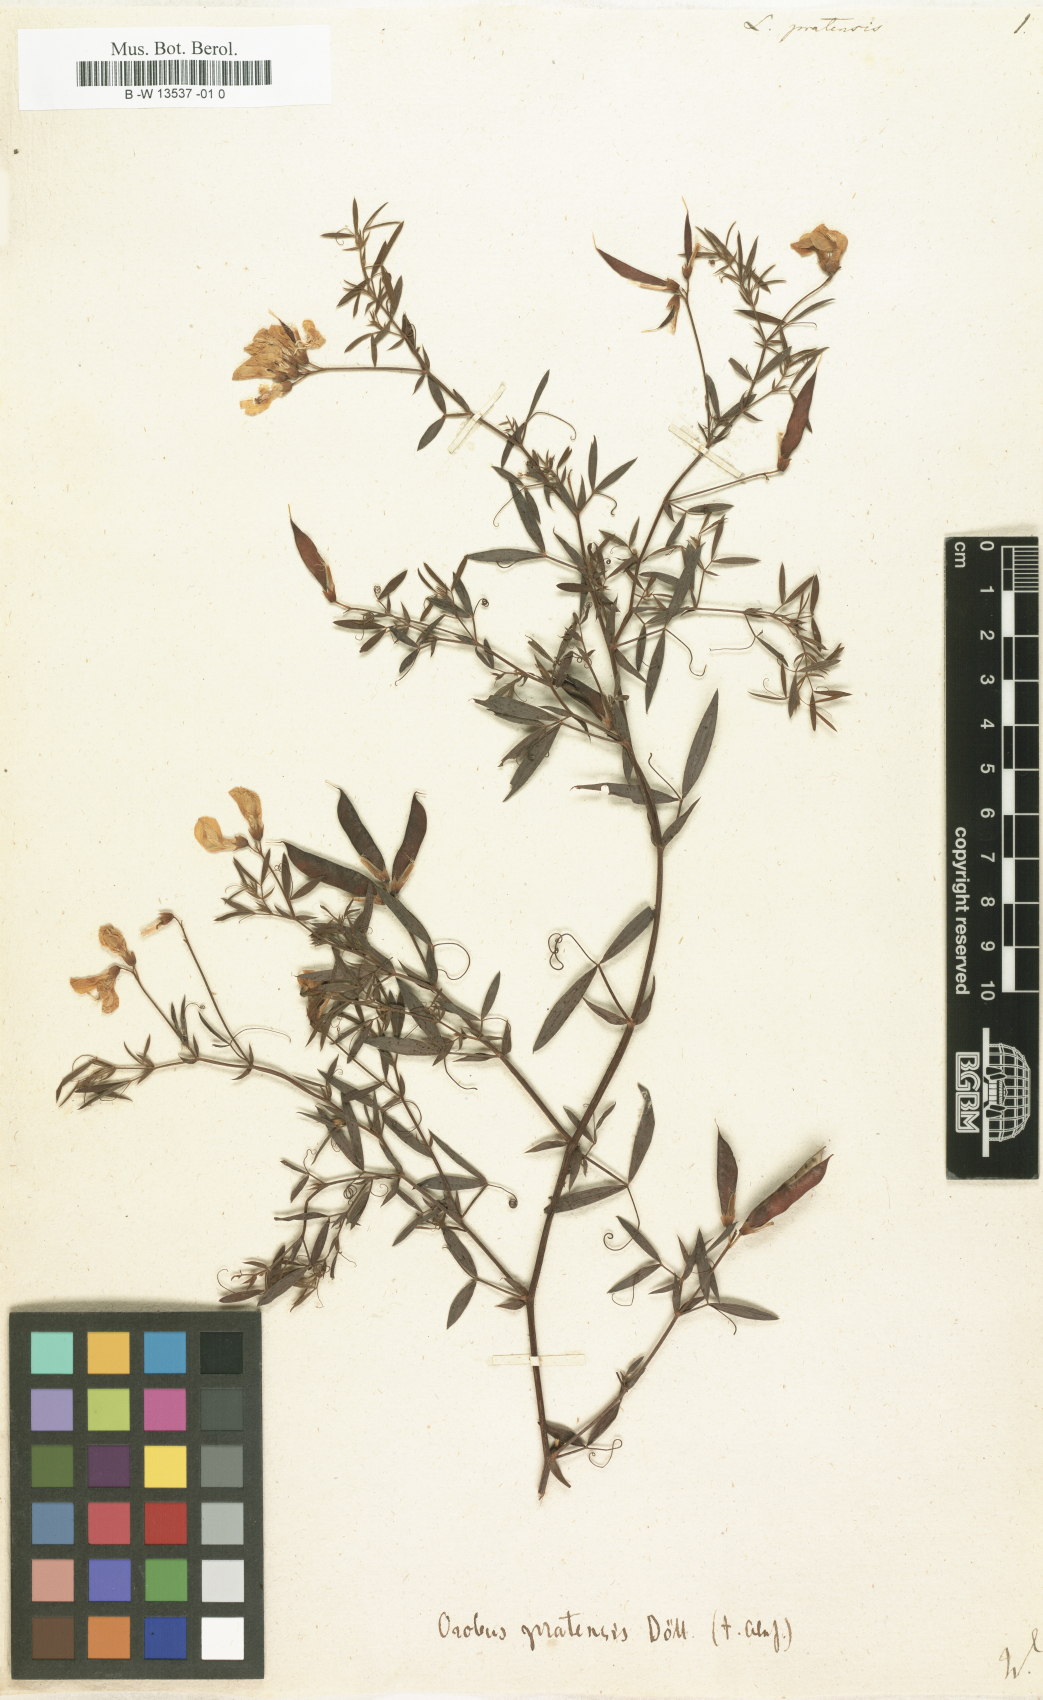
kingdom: Plantae
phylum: Tracheophyta
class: Magnoliopsida
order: Fabales
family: Fabaceae
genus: Lathyrus
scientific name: Lathyrus pratensis
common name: Meadow vetchling
